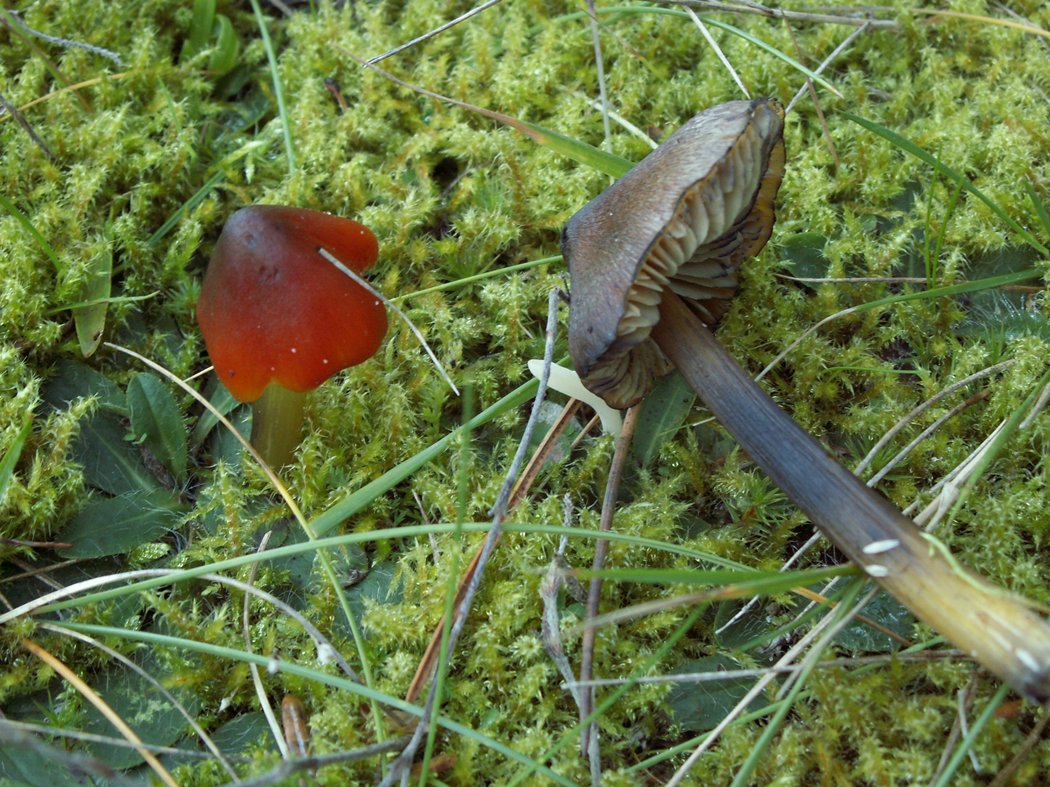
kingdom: Fungi
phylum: Basidiomycota
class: Agaricomycetes
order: Agaricales
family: Hygrophoraceae
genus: Hygrocybe
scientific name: Hygrocybe conica
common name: kegle-vokshat
